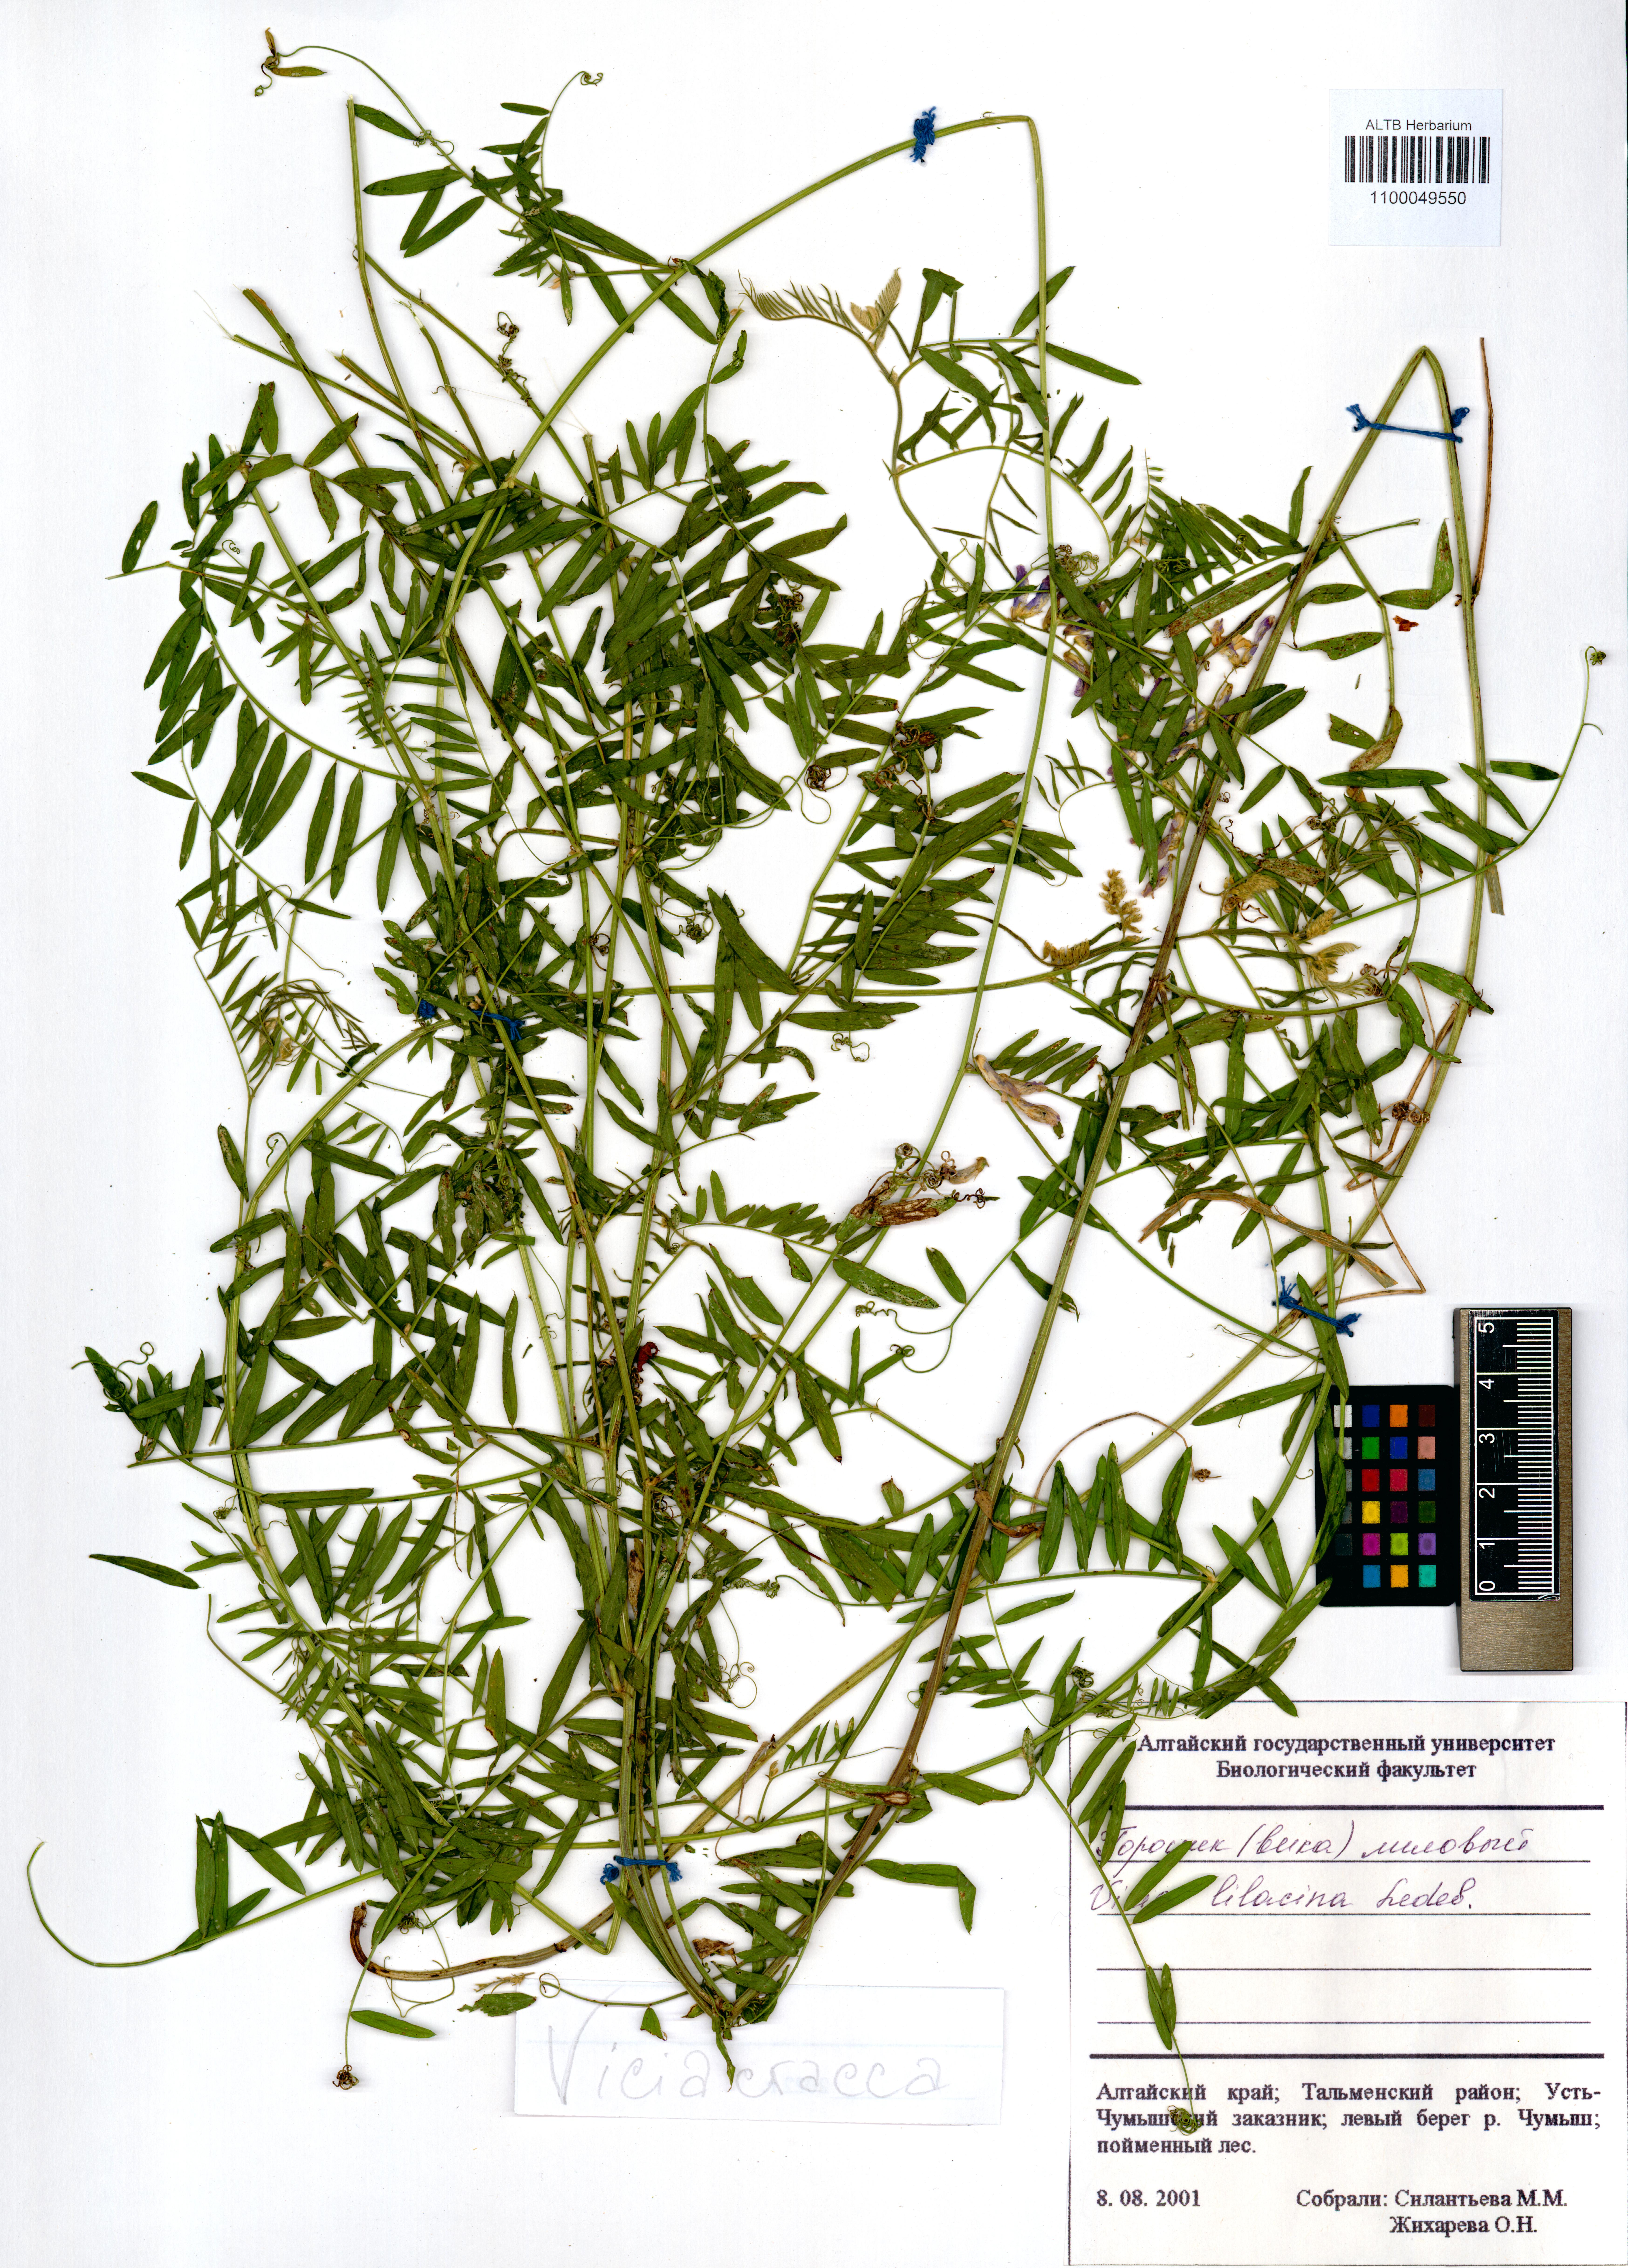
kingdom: Plantae
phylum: Tracheophyta
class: Magnoliopsida
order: Fabales
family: Fabaceae
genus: Vicia
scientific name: Vicia cracca
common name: Bird vetch
